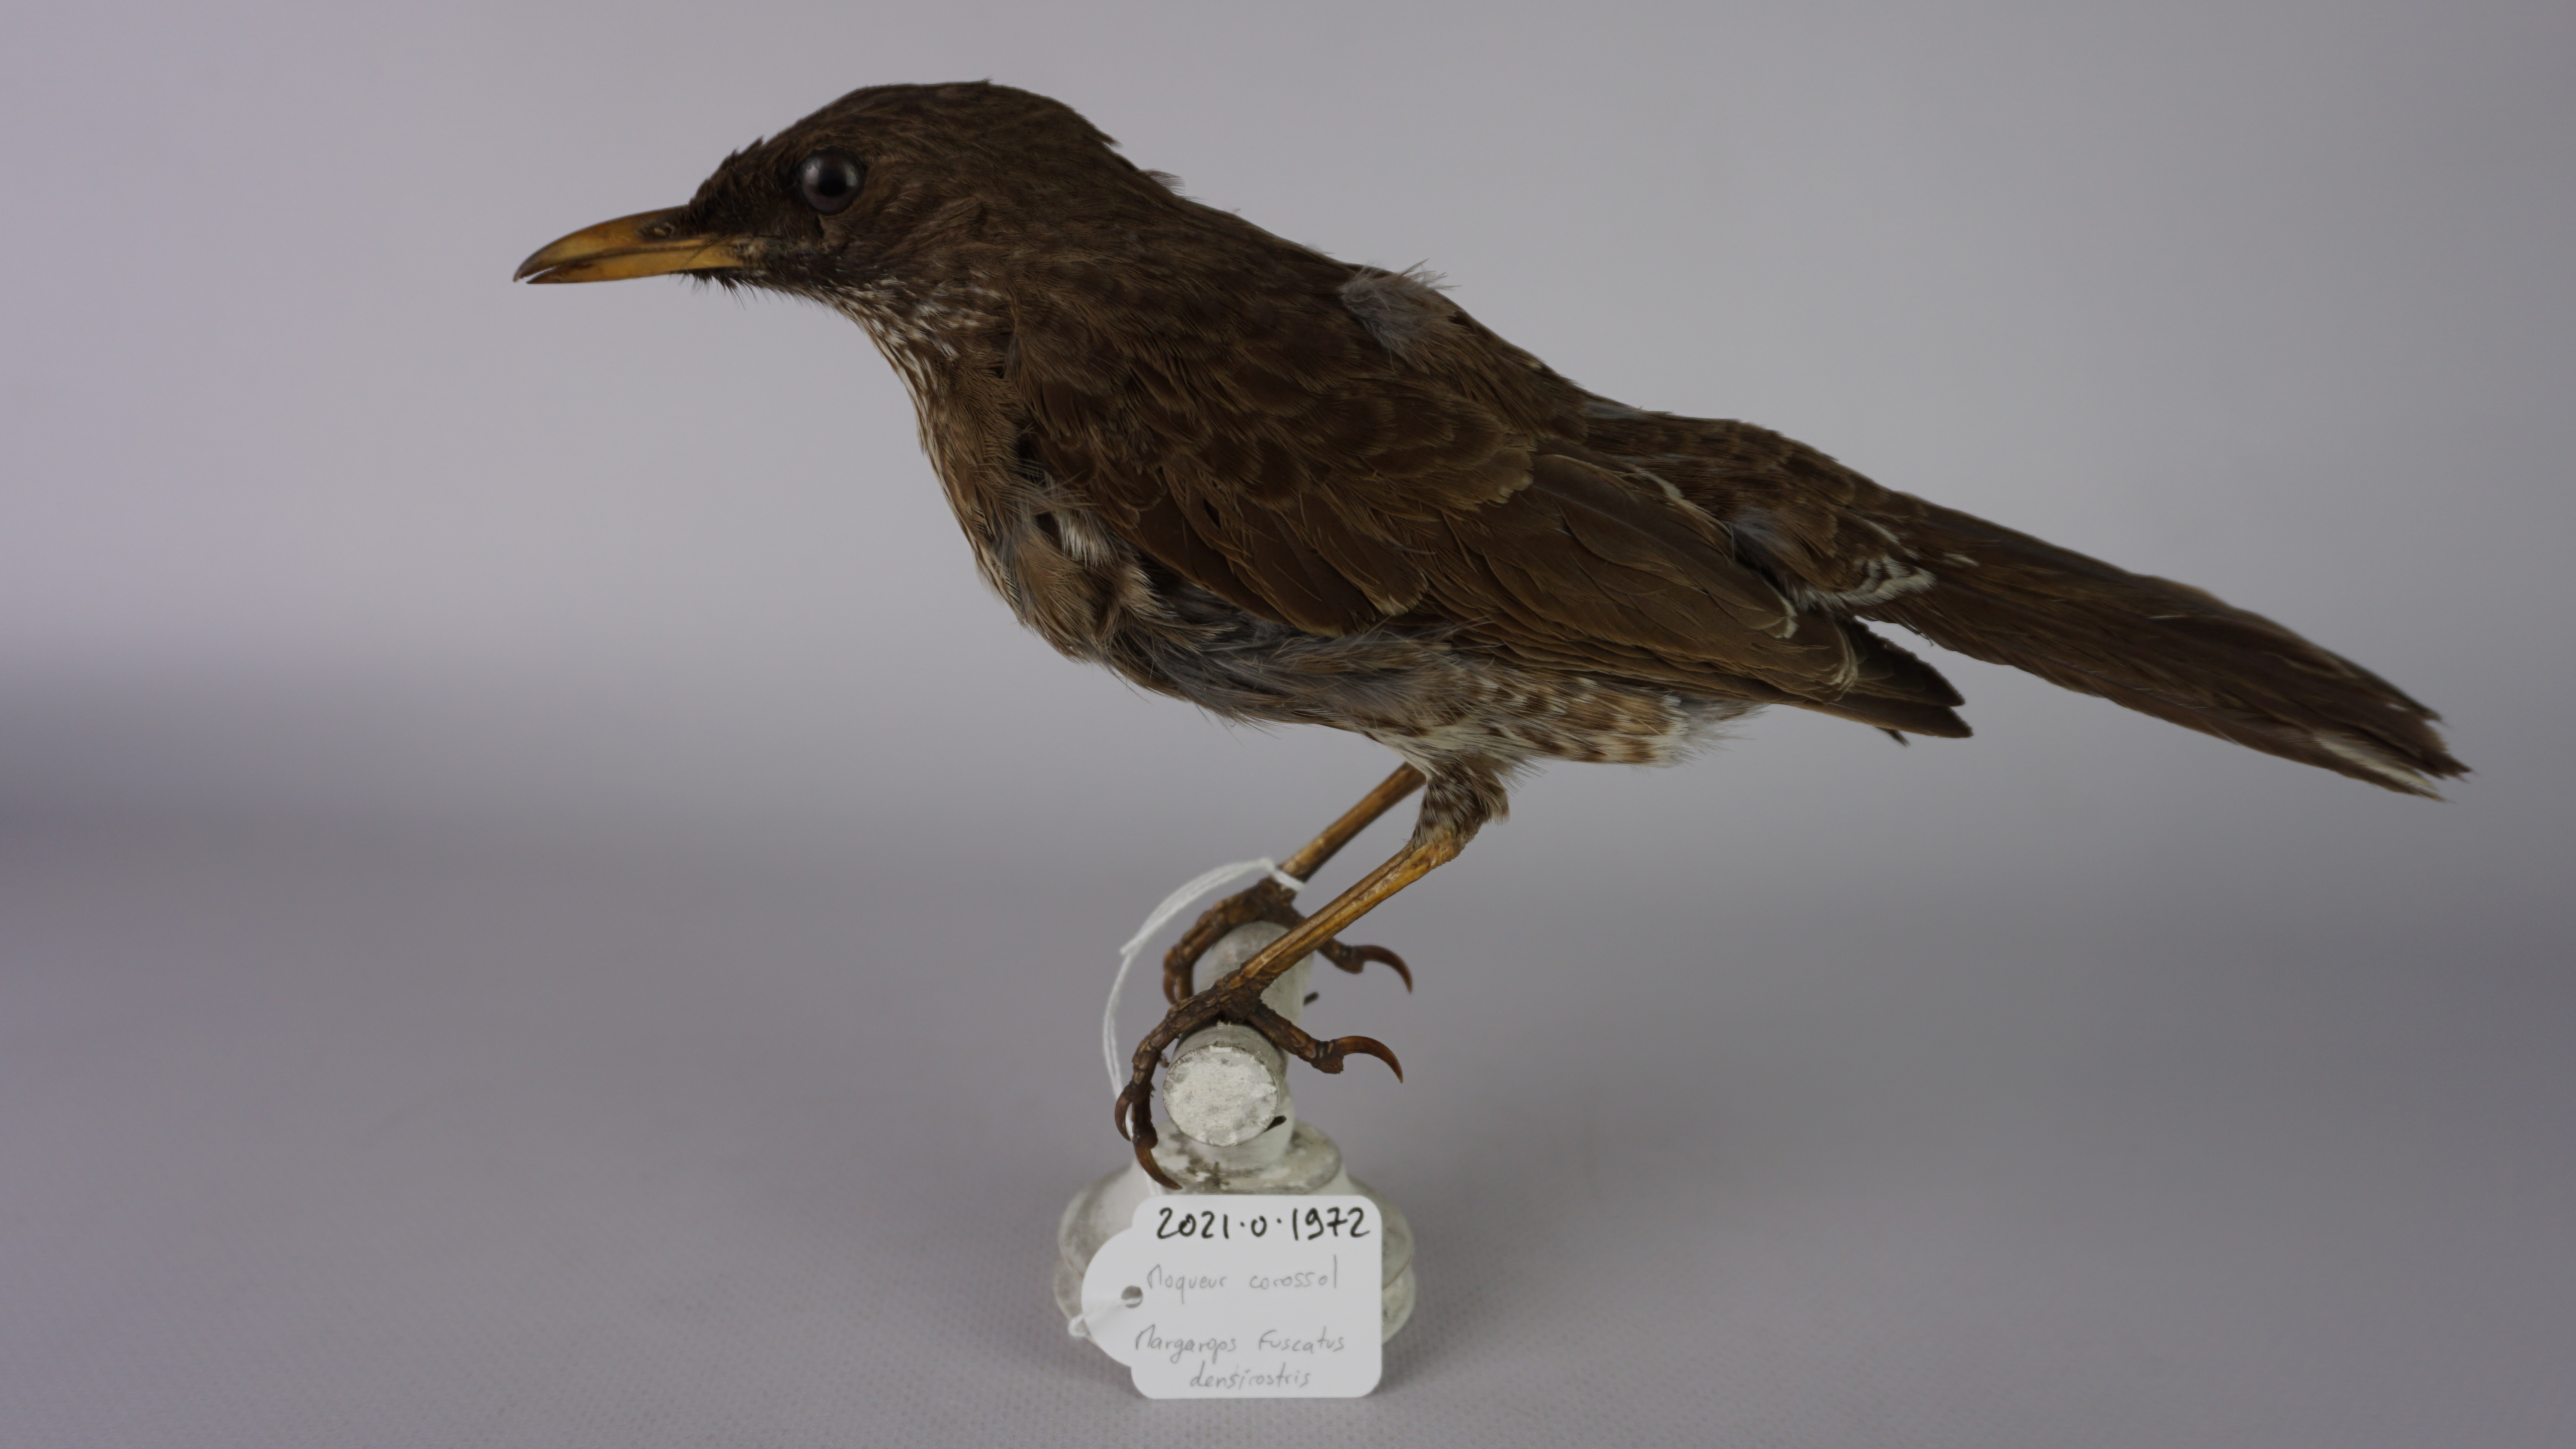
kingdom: Animalia
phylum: Chordata
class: Aves
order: Passeriformes
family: Mimidae
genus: Margarops
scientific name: Margarops fuscatus
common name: Pearly-eyed thrasher
